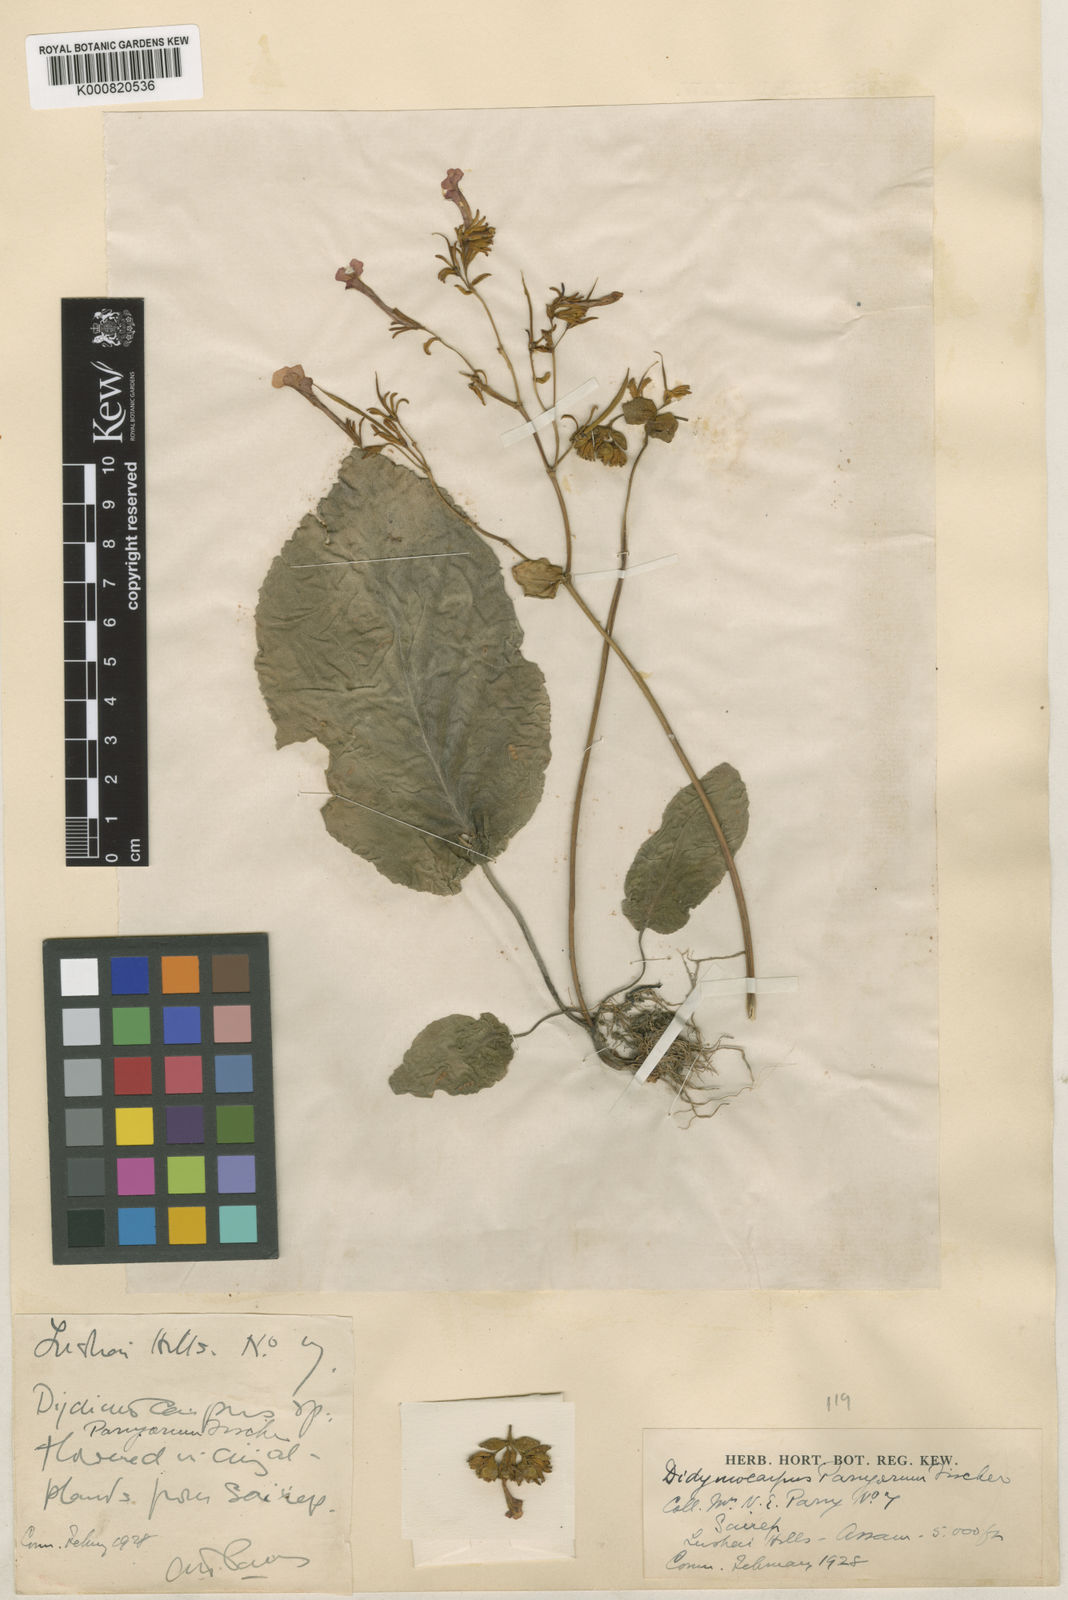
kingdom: Plantae
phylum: Tracheophyta
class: Magnoliopsida
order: Lamiales
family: Gesneriaceae
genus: Didymocarpus
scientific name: Didymocarpus parryorum
